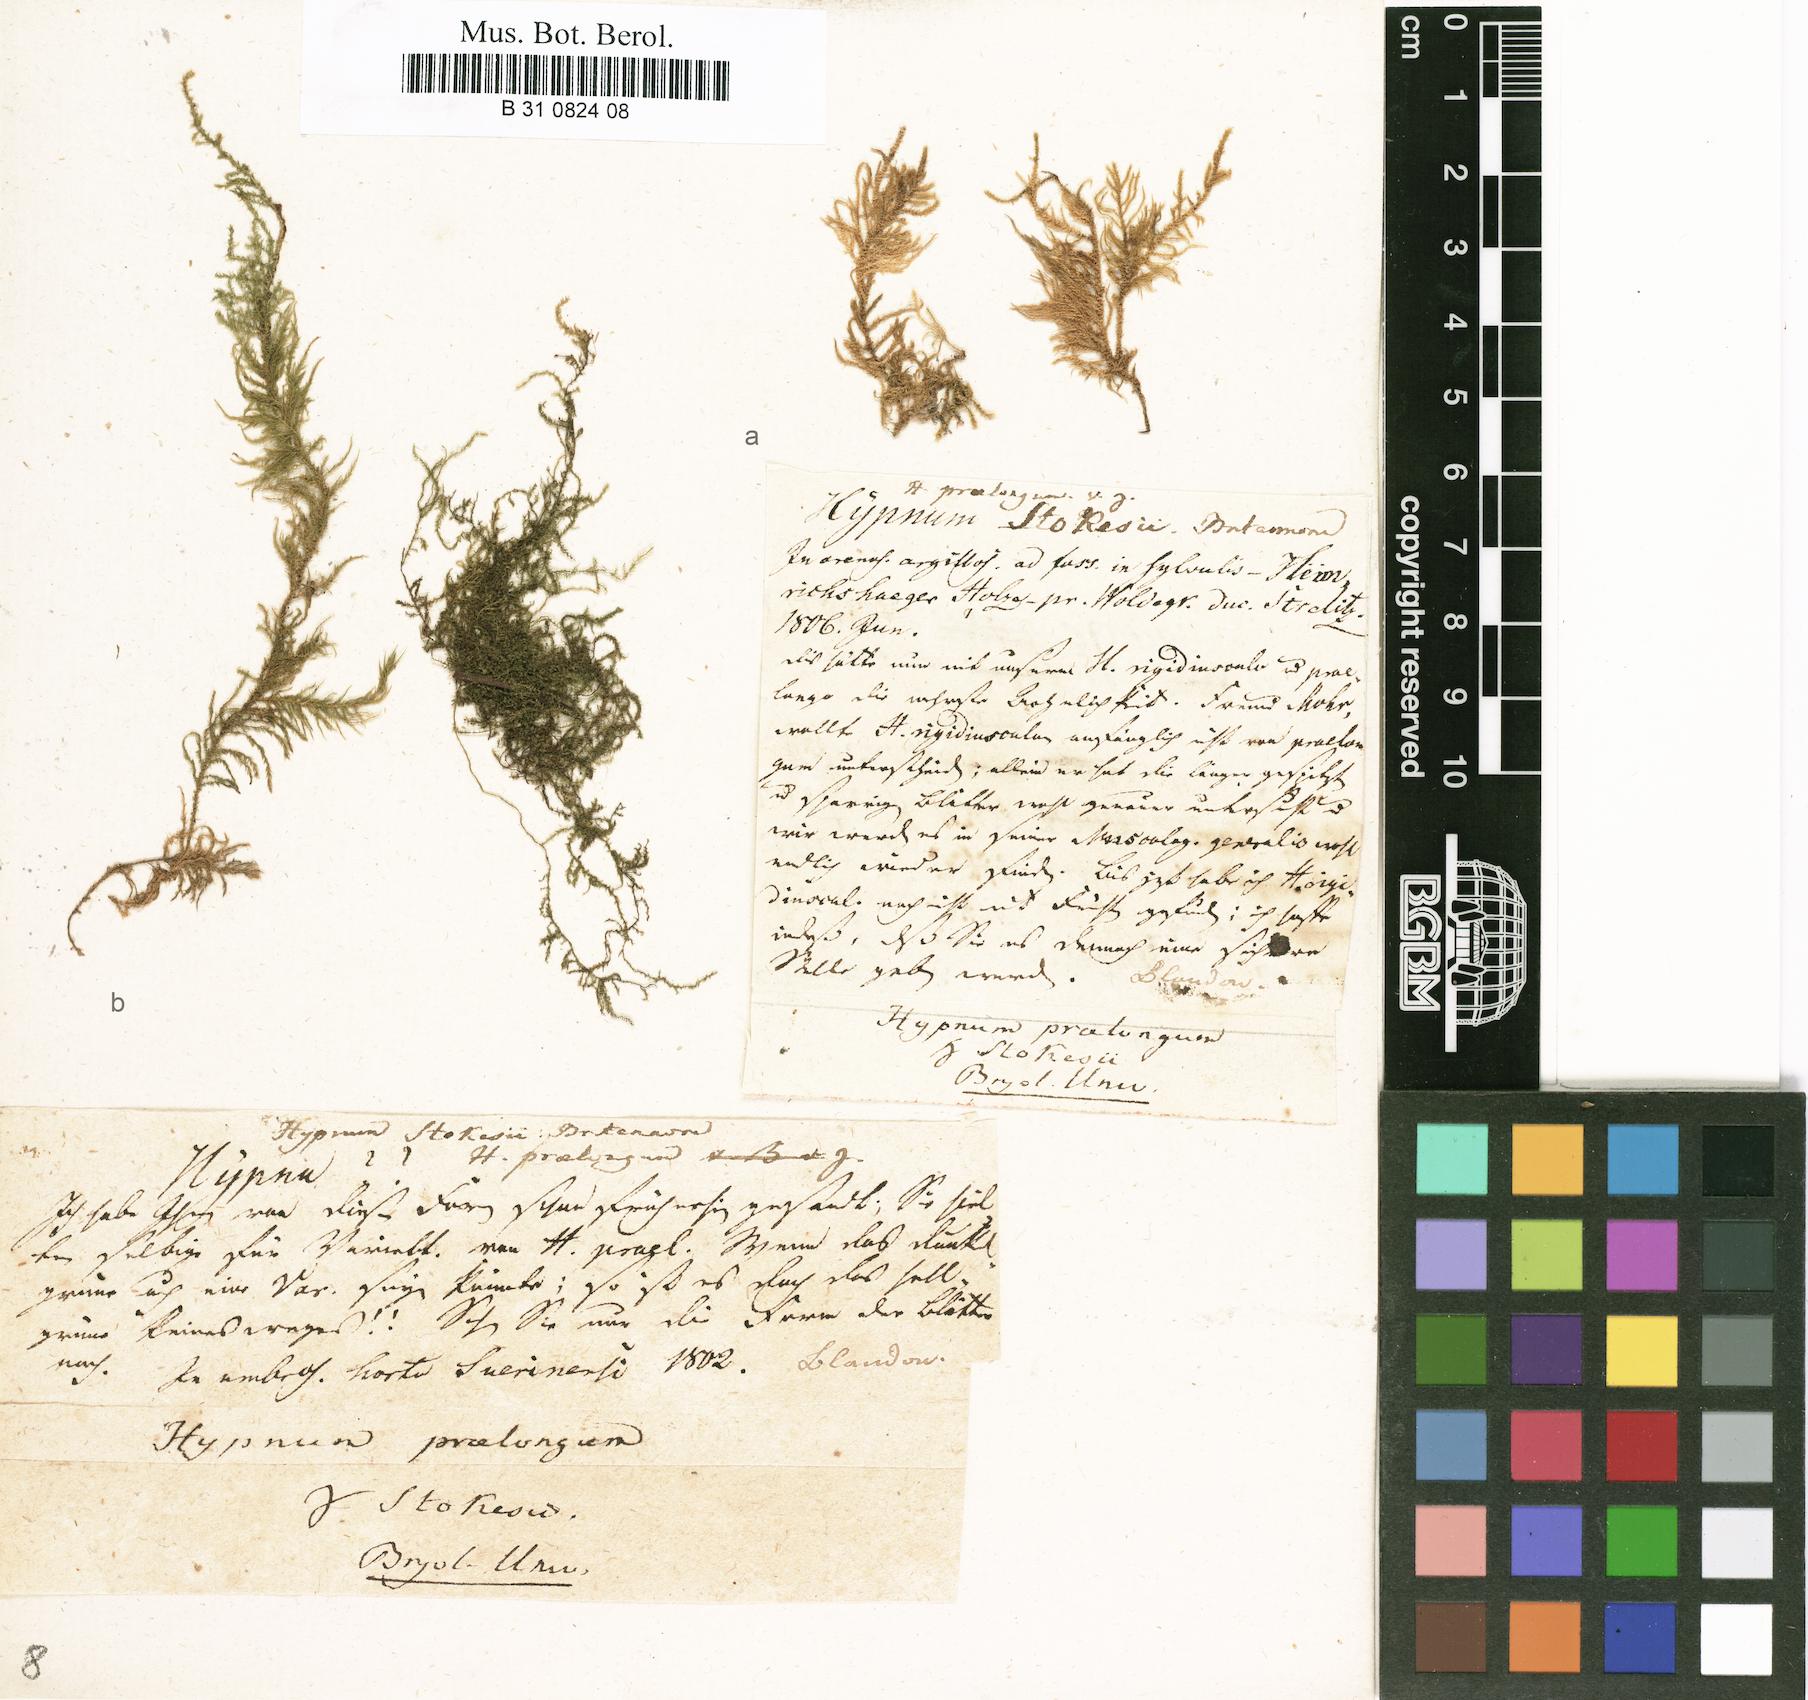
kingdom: Plantae
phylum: Bryophyta
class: Bryopsida
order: Hypnales
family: Brachytheciaceae
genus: Kindbergia
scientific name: Kindbergia praelonga
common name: Slender beaked moss
